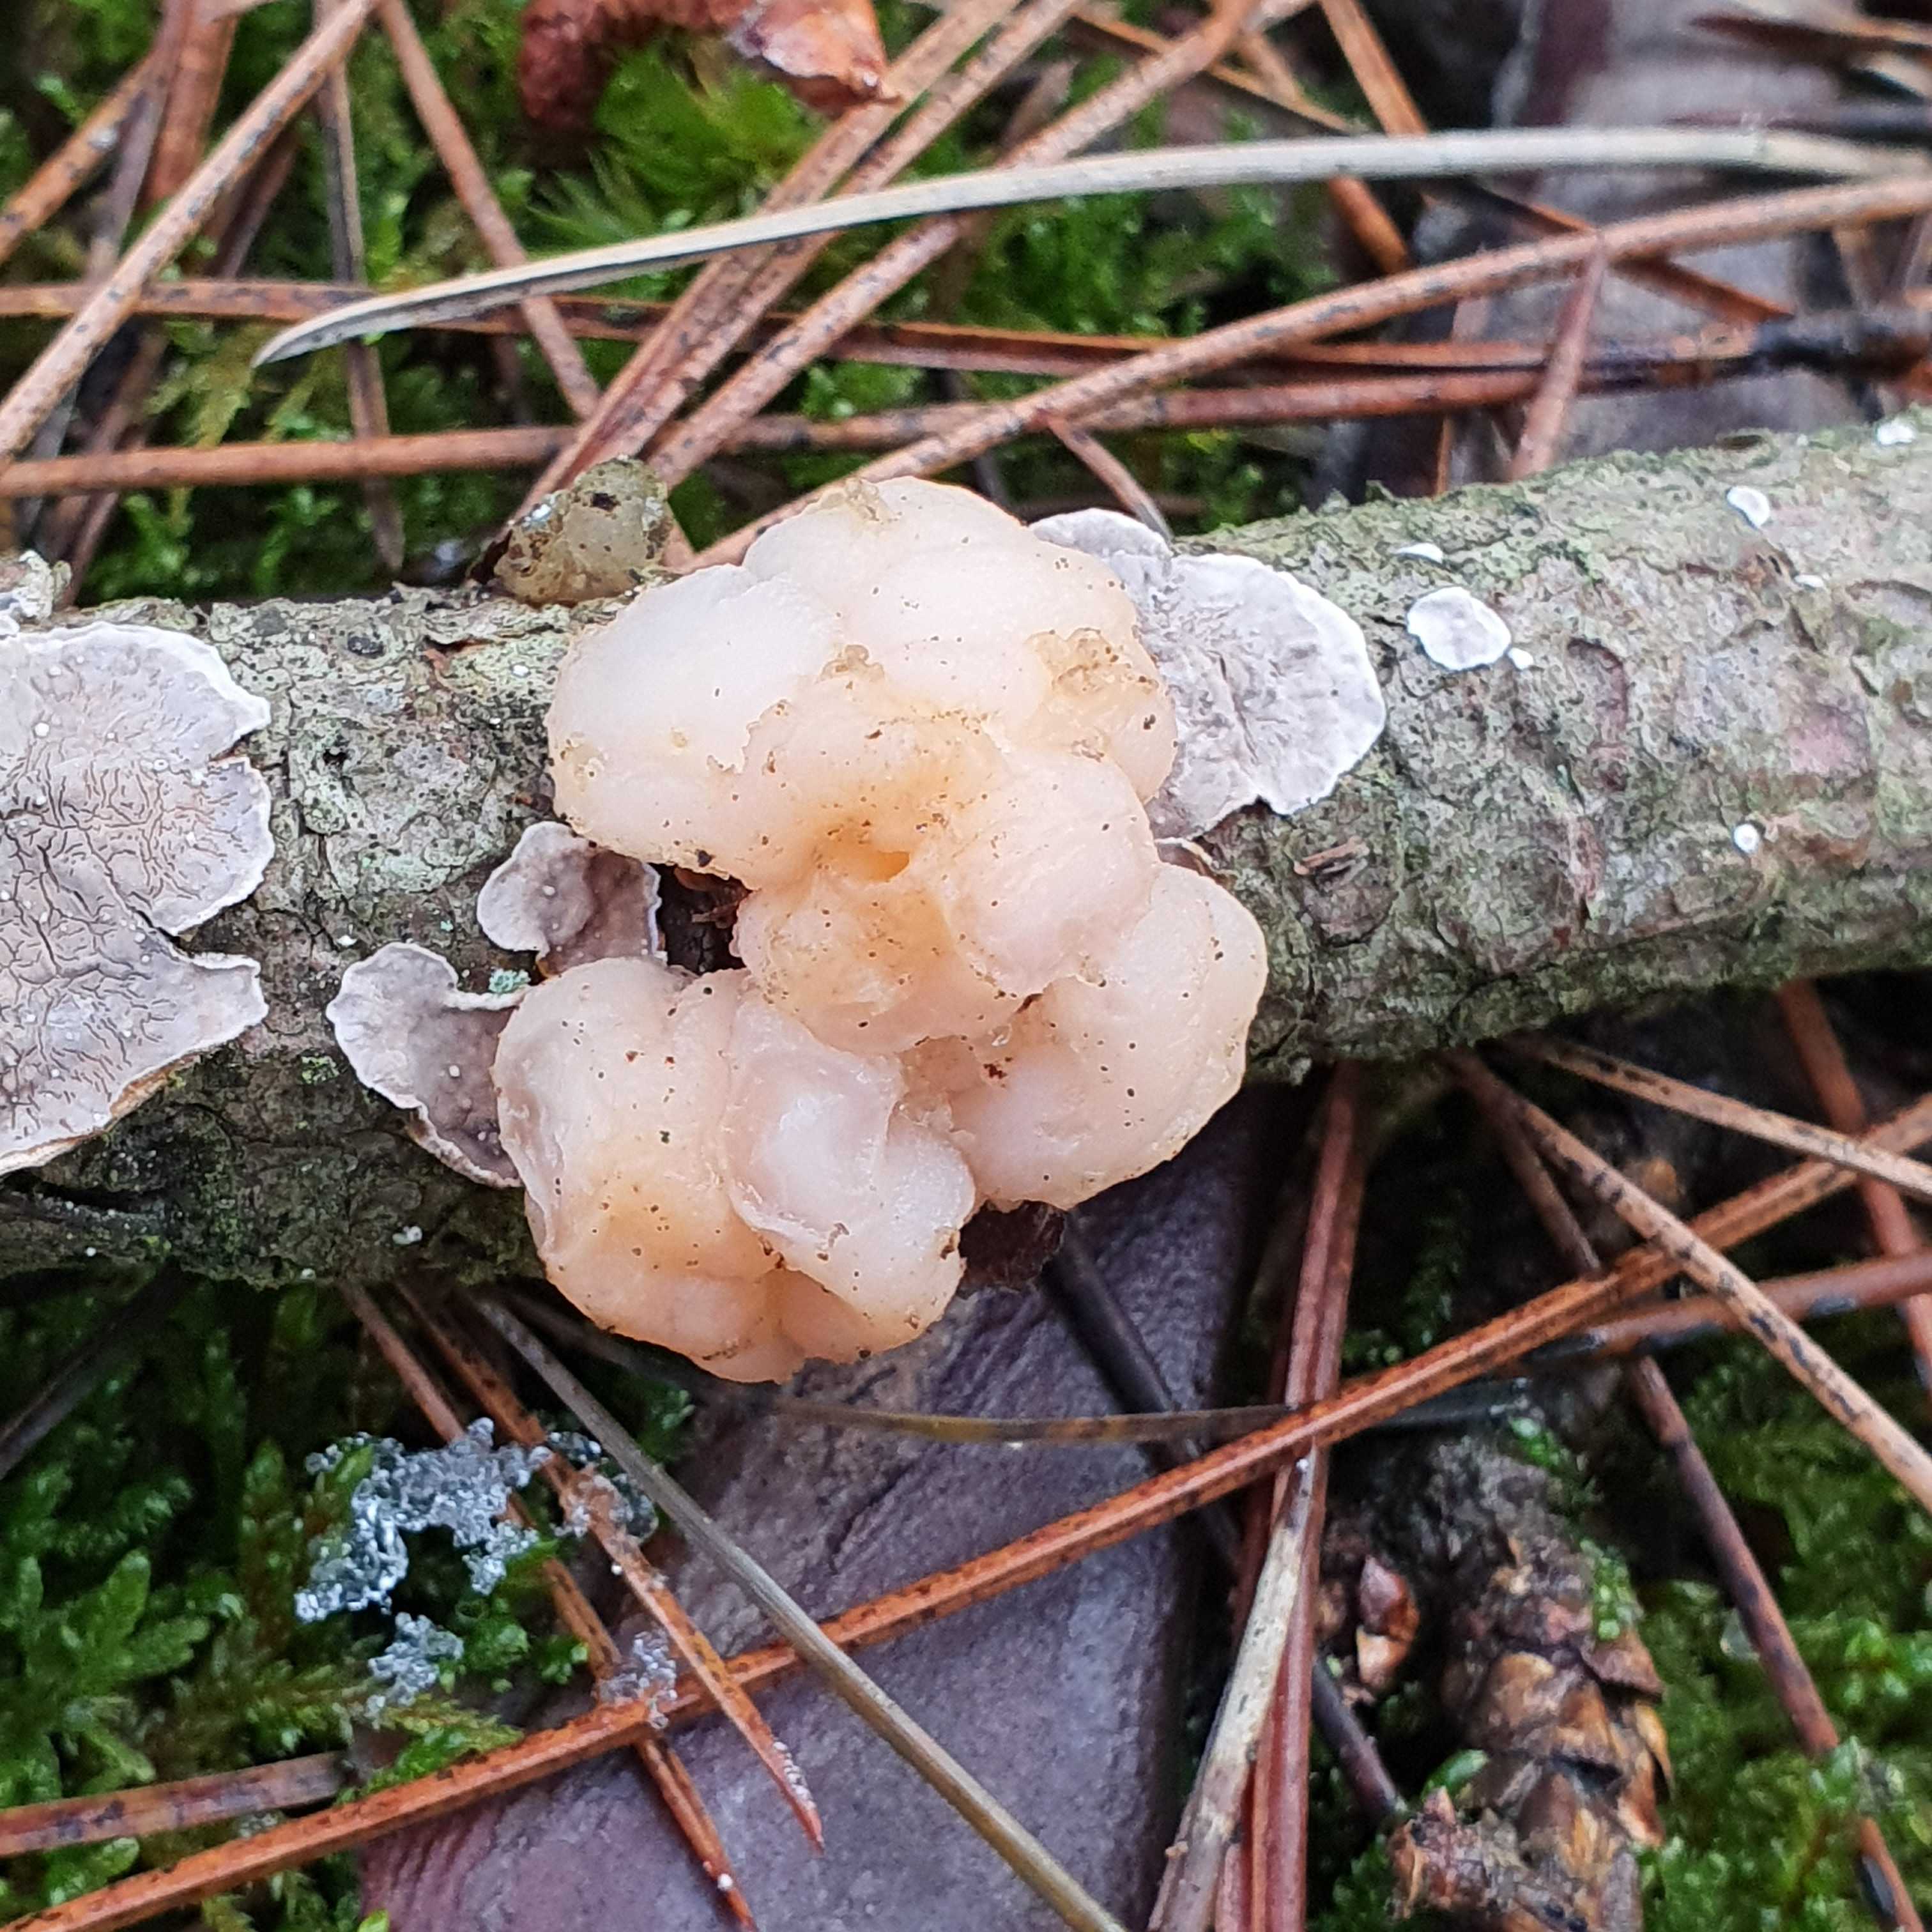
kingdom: Fungi
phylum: Basidiomycota
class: Tremellomycetes
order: Tremellales
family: Naemateliaceae
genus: Naematelia
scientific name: Naematelia encephala
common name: fyrre-bævresvamp
